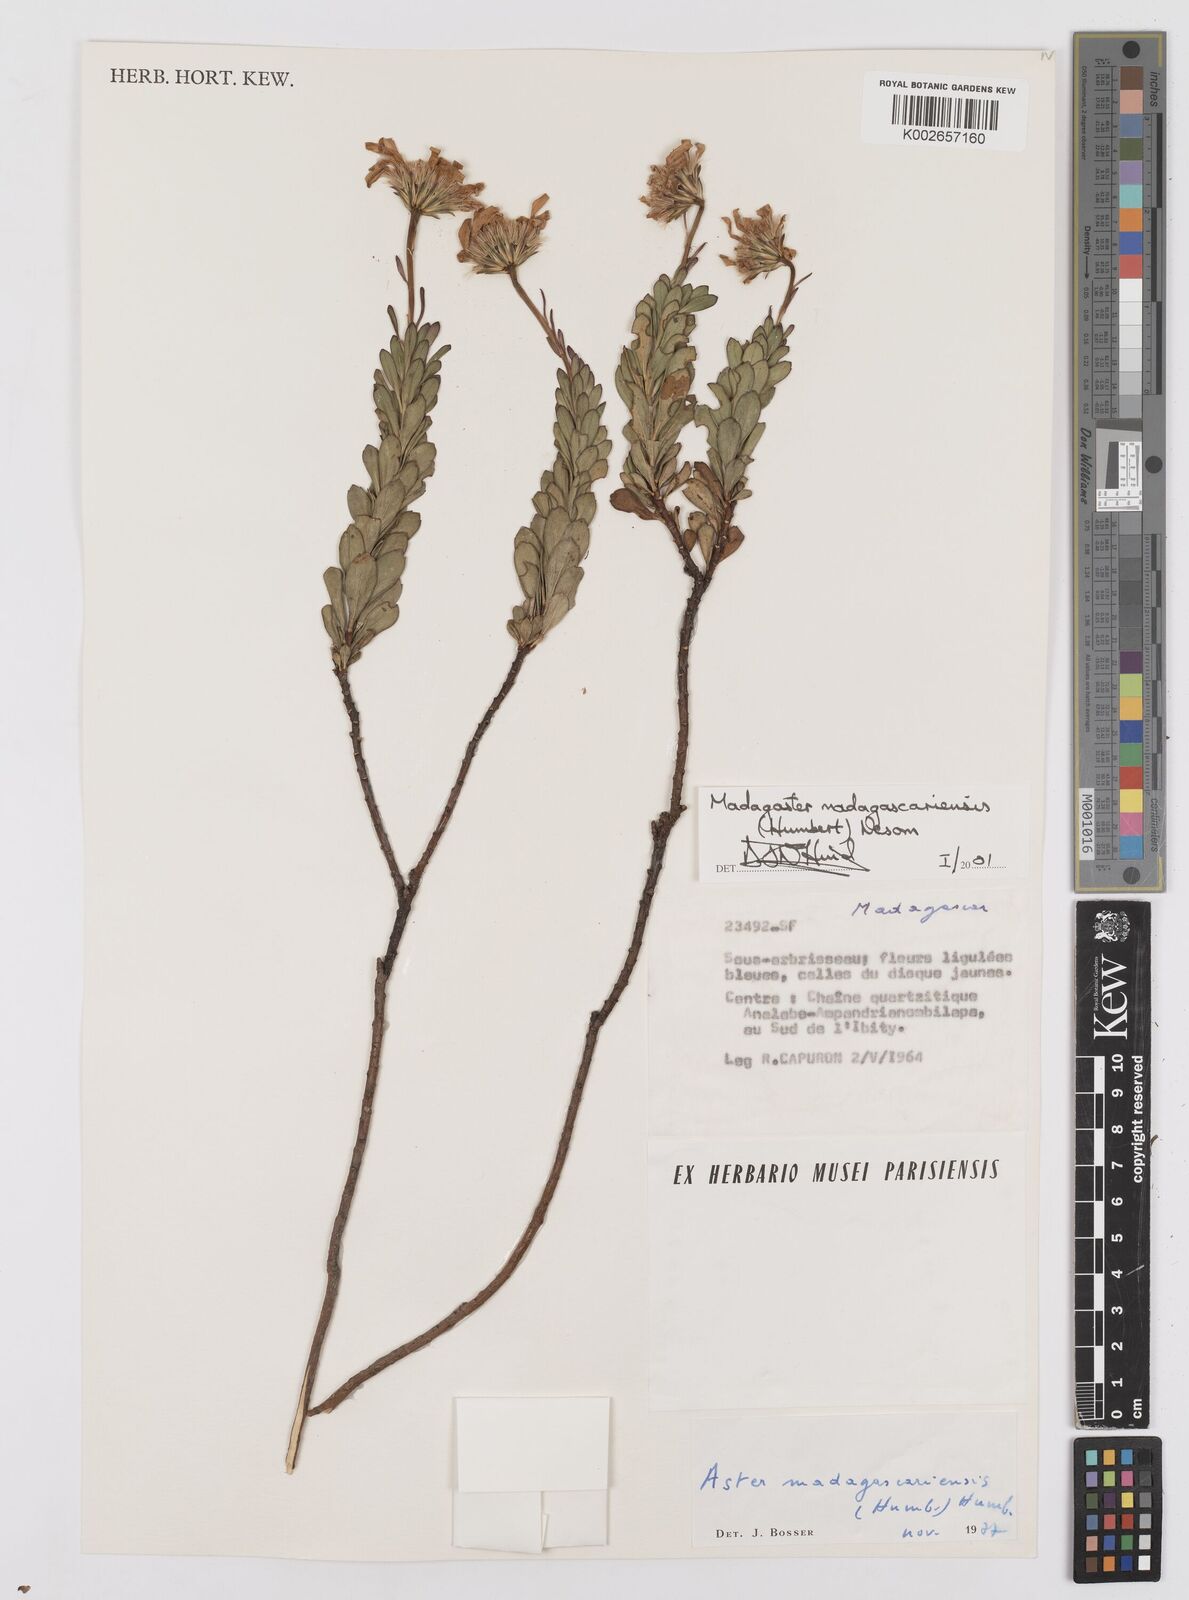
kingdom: Plantae
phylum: Tracheophyta
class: Magnoliopsida
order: Asterales
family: Asteraceae
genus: Madagaster
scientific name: Madagaster madagascariensis
